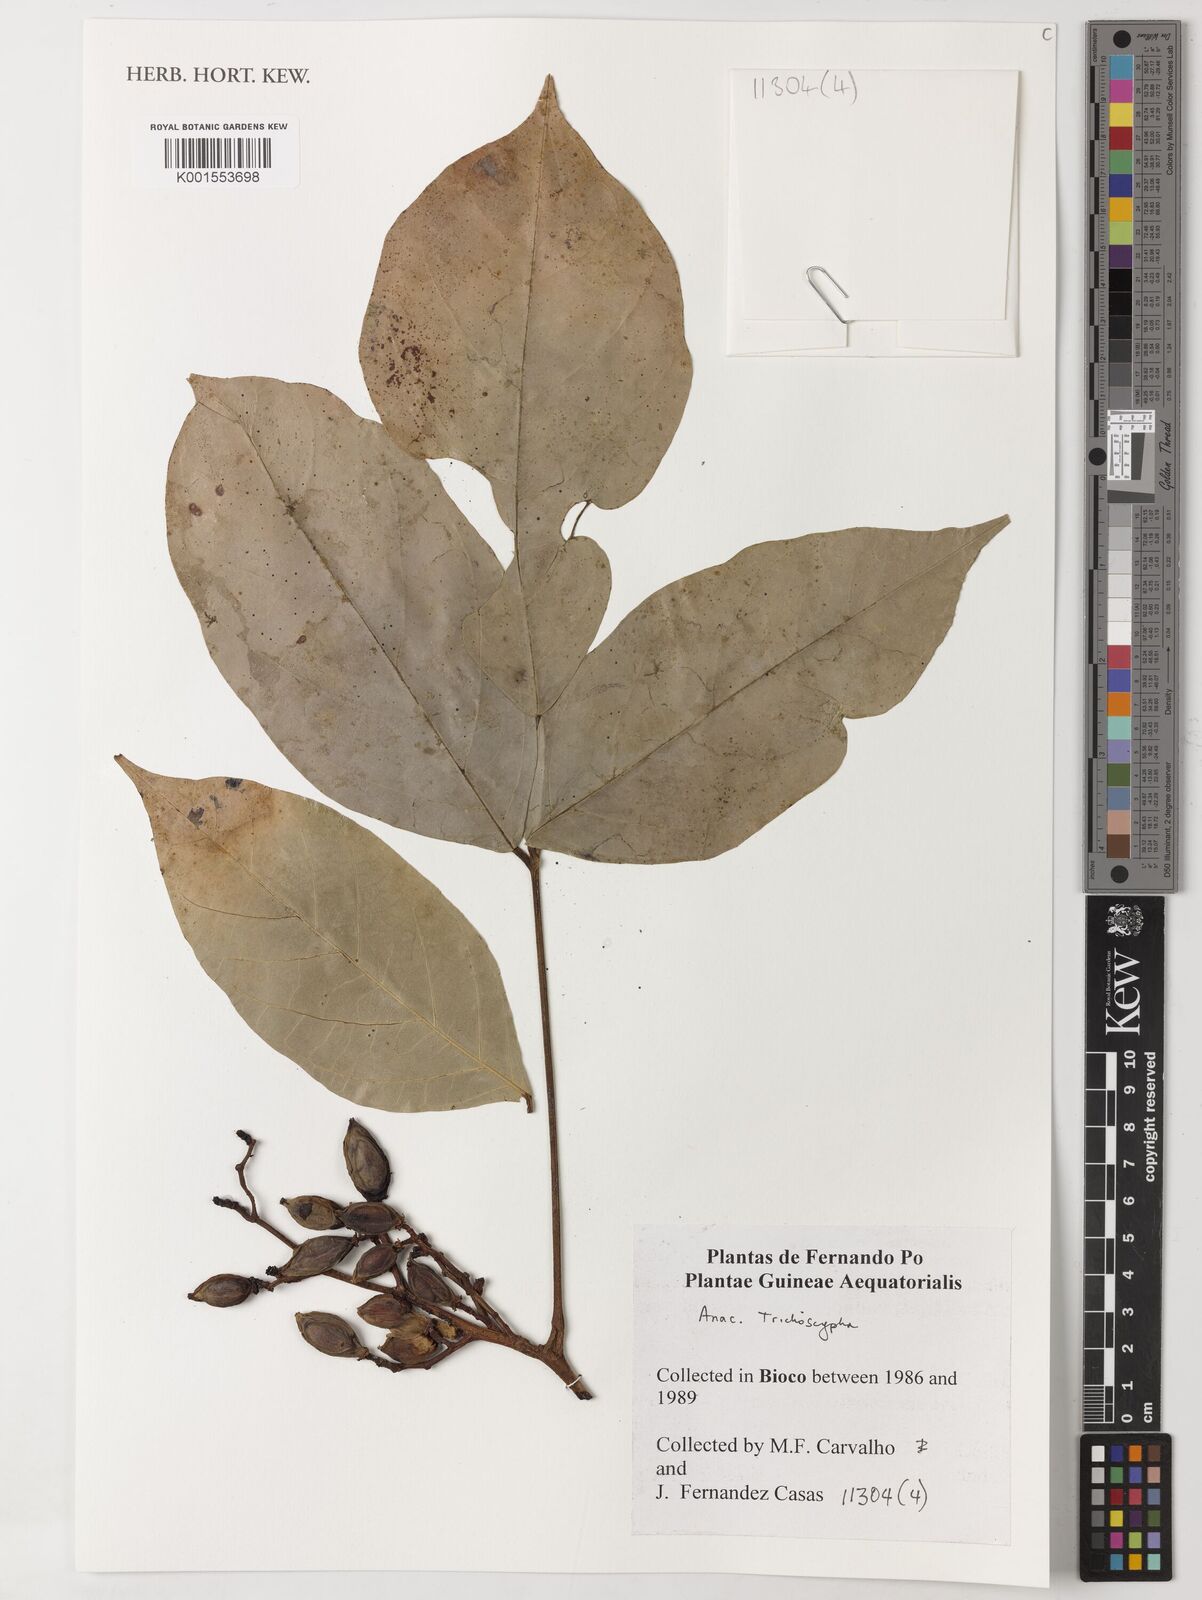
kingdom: Plantae
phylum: Tracheophyta
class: Magnoliopsida
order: Sapindales
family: Anacardiaceae
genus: Trichoscypha
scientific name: Trichoscypha
